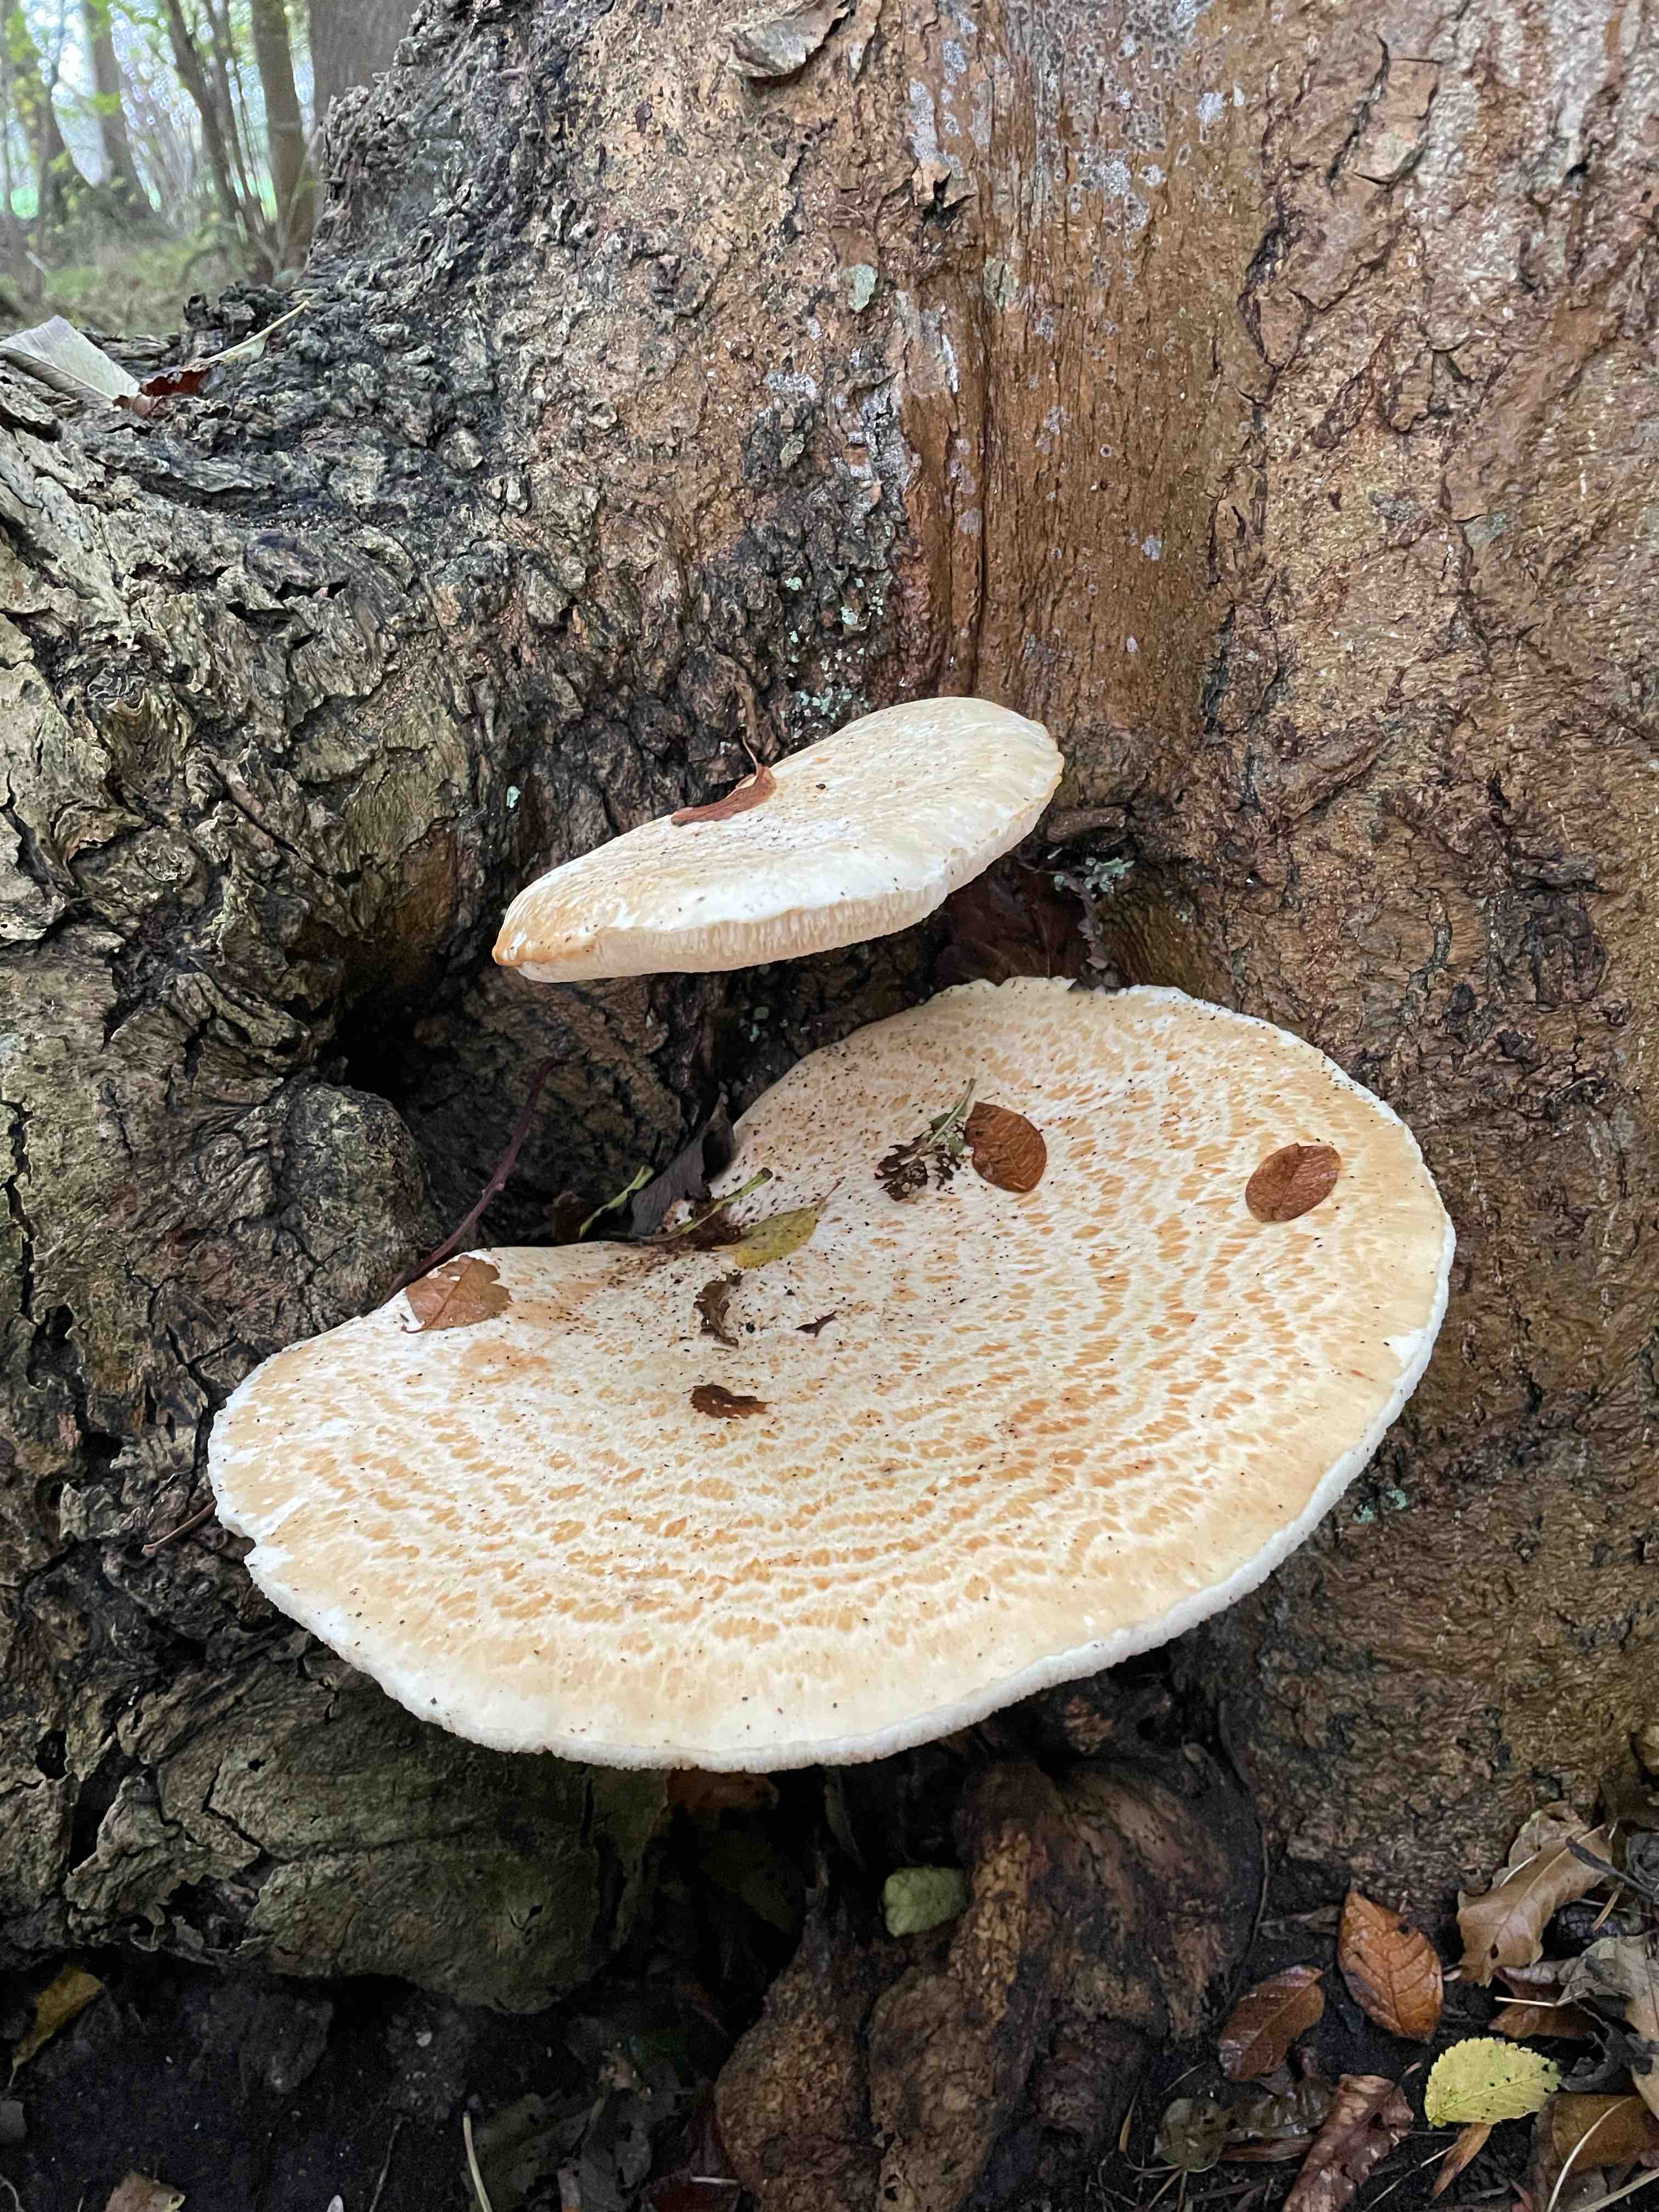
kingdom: Fungi
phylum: Basidiomycota
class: Agaricomycetes
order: Polyporales
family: Polyporaceae
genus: Cerioporus
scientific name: Cerioporus squamosus
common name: skællet stilkporesvamp
